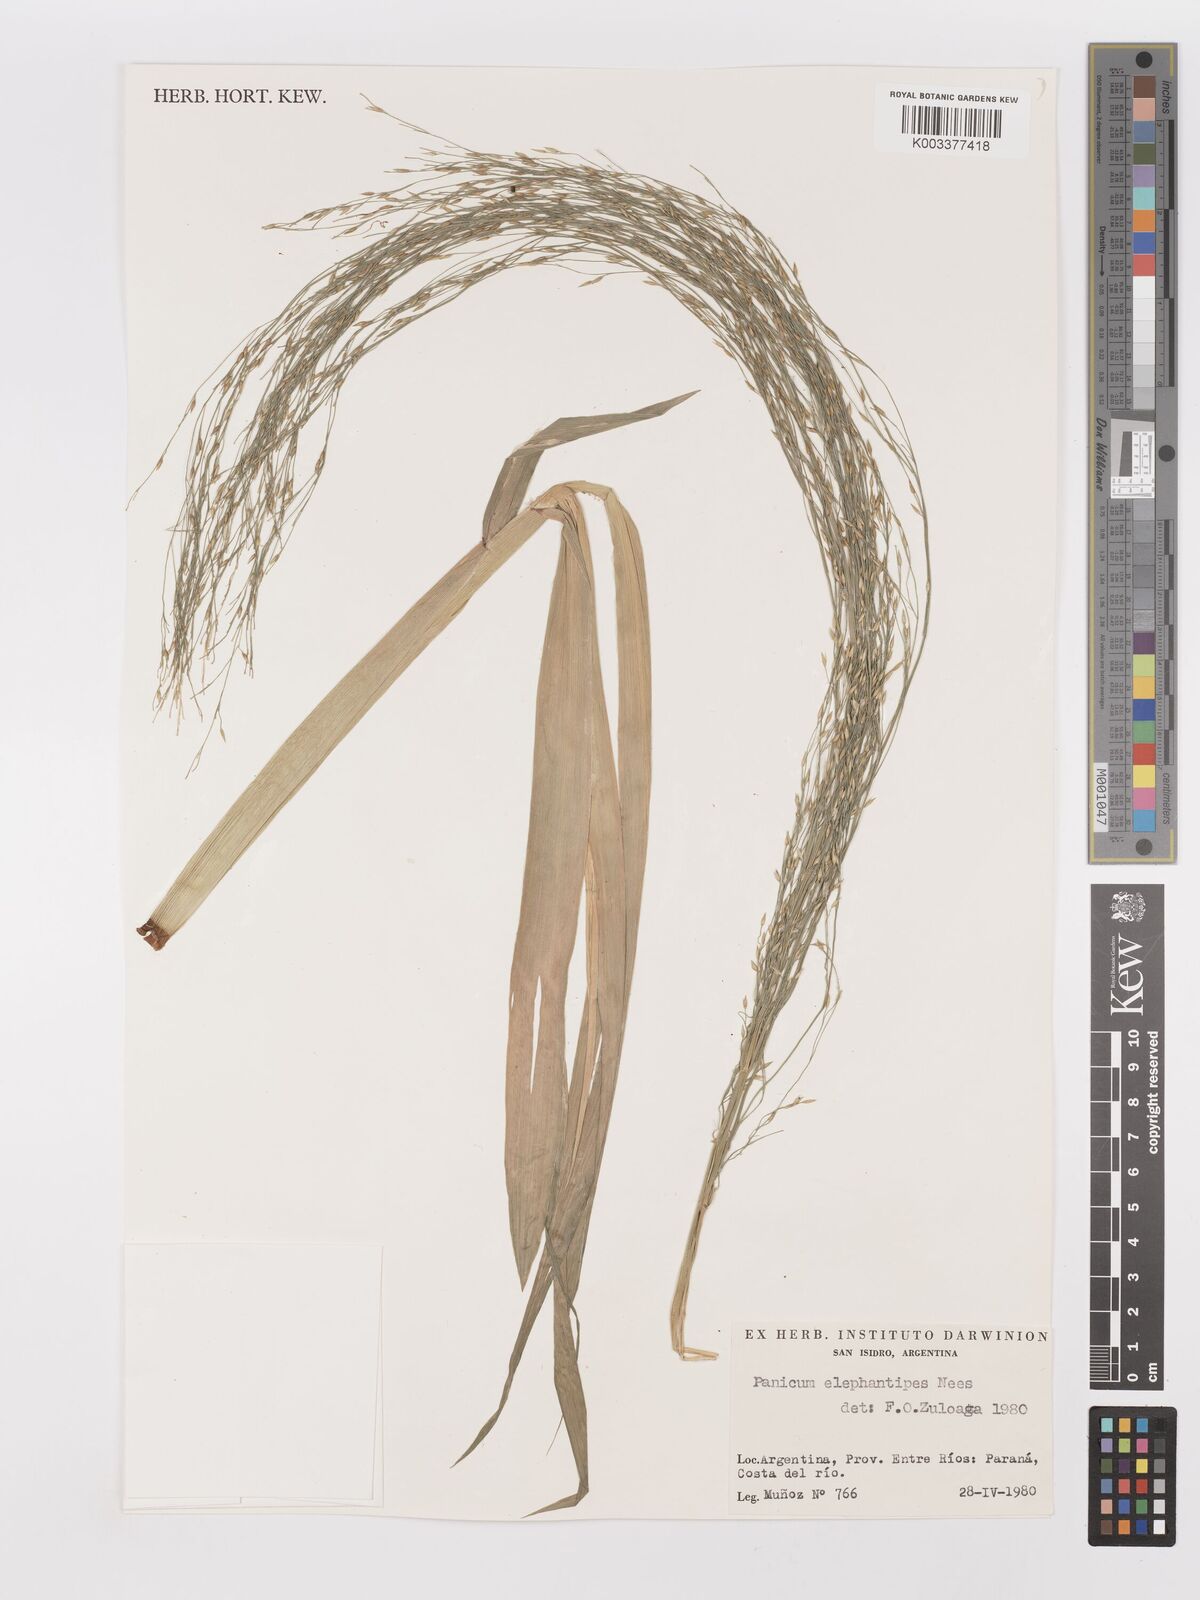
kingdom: Plantae
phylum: Tracheophyta
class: Liliopsida
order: Poales
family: Poaceae
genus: Louisiella
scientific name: Louisiella elephantipes
